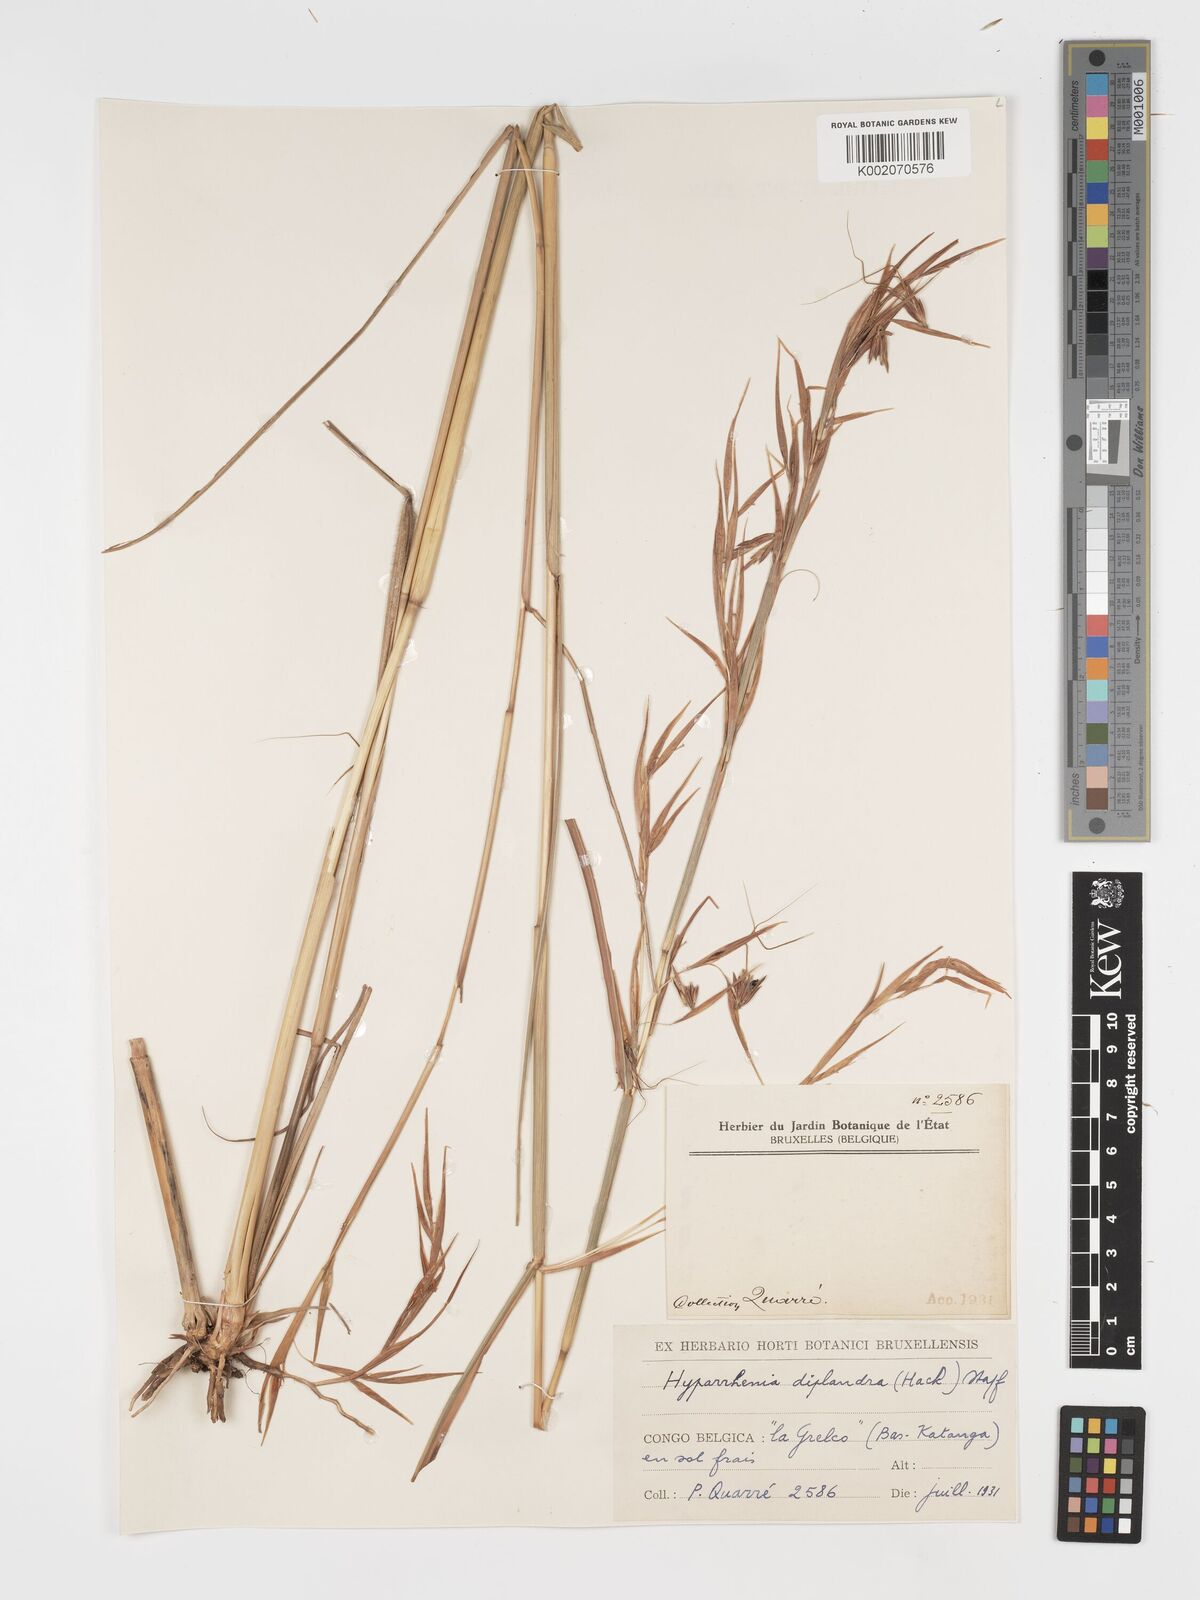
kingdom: Plantae
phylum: Tracheophyta
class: Liliopsida
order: Poales
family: Poaceae
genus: Hyparrhenia
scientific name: Hyparrhenia diplandra
